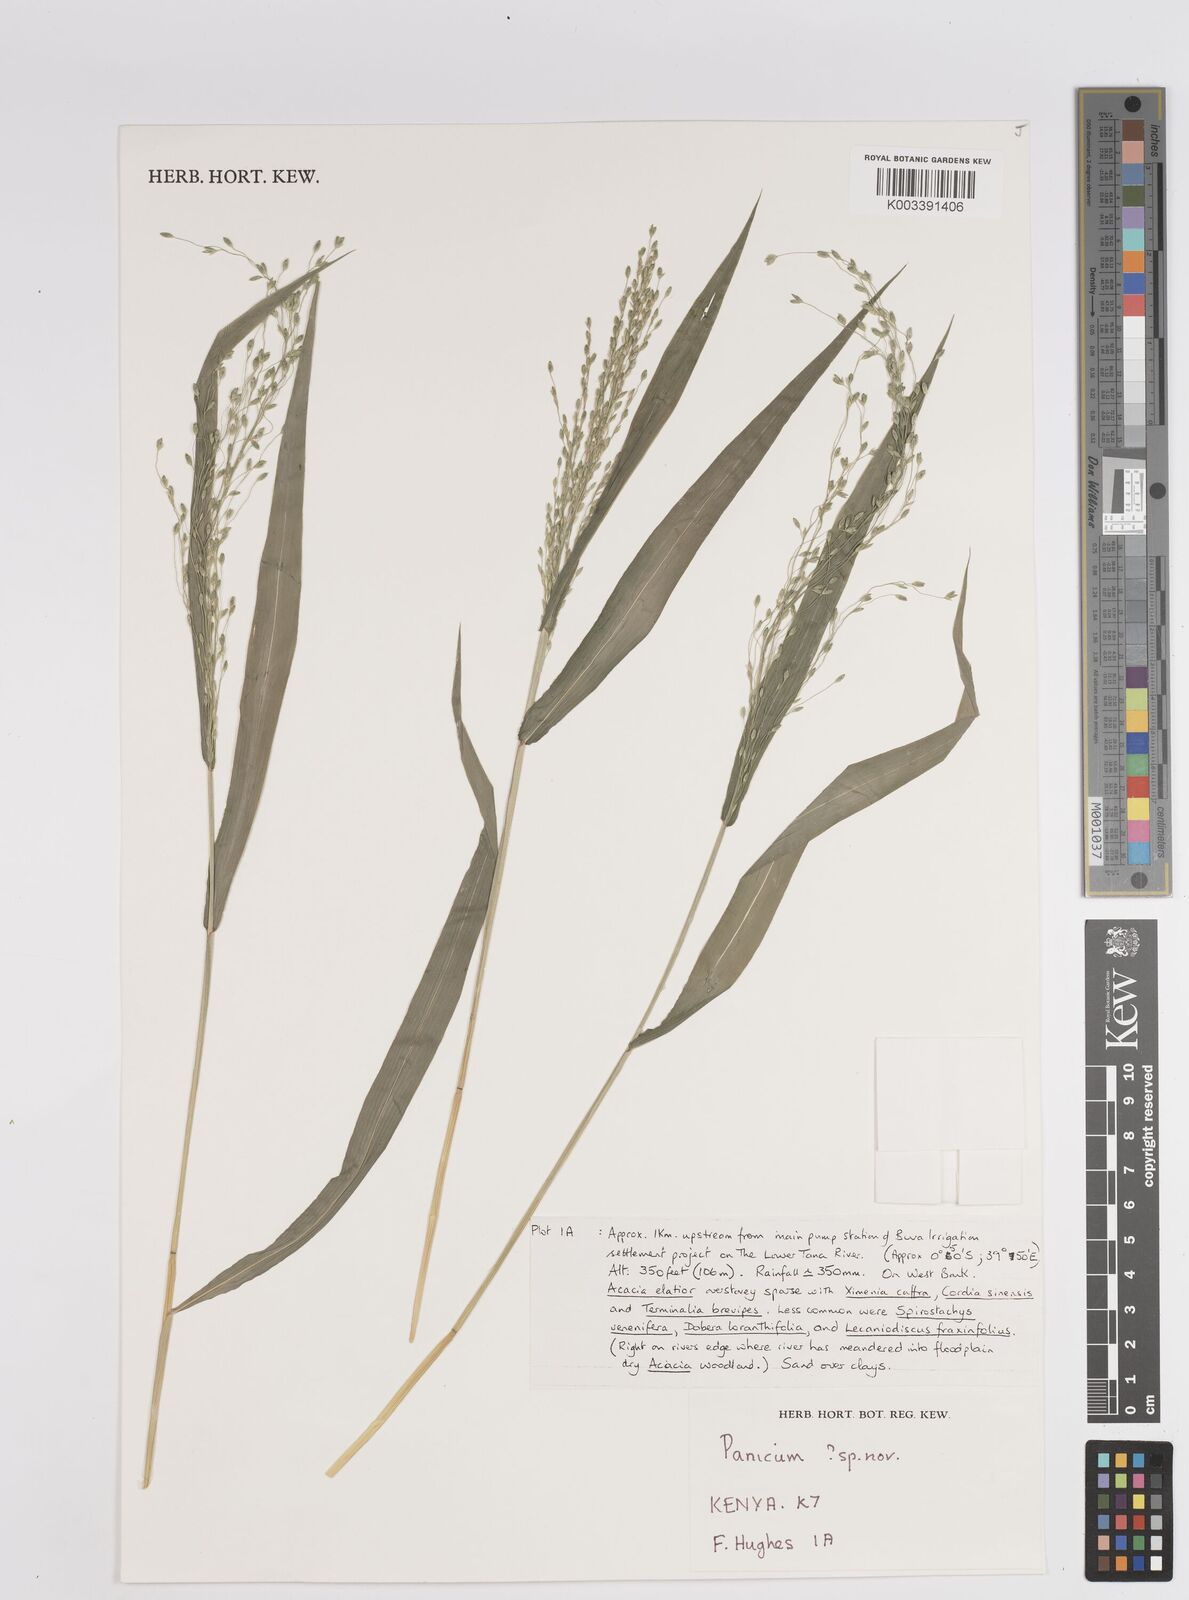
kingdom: Plantae
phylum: Tracheophyta
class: Liliopsida
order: Poales
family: Poaceae
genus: Panicum
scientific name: Panicum
